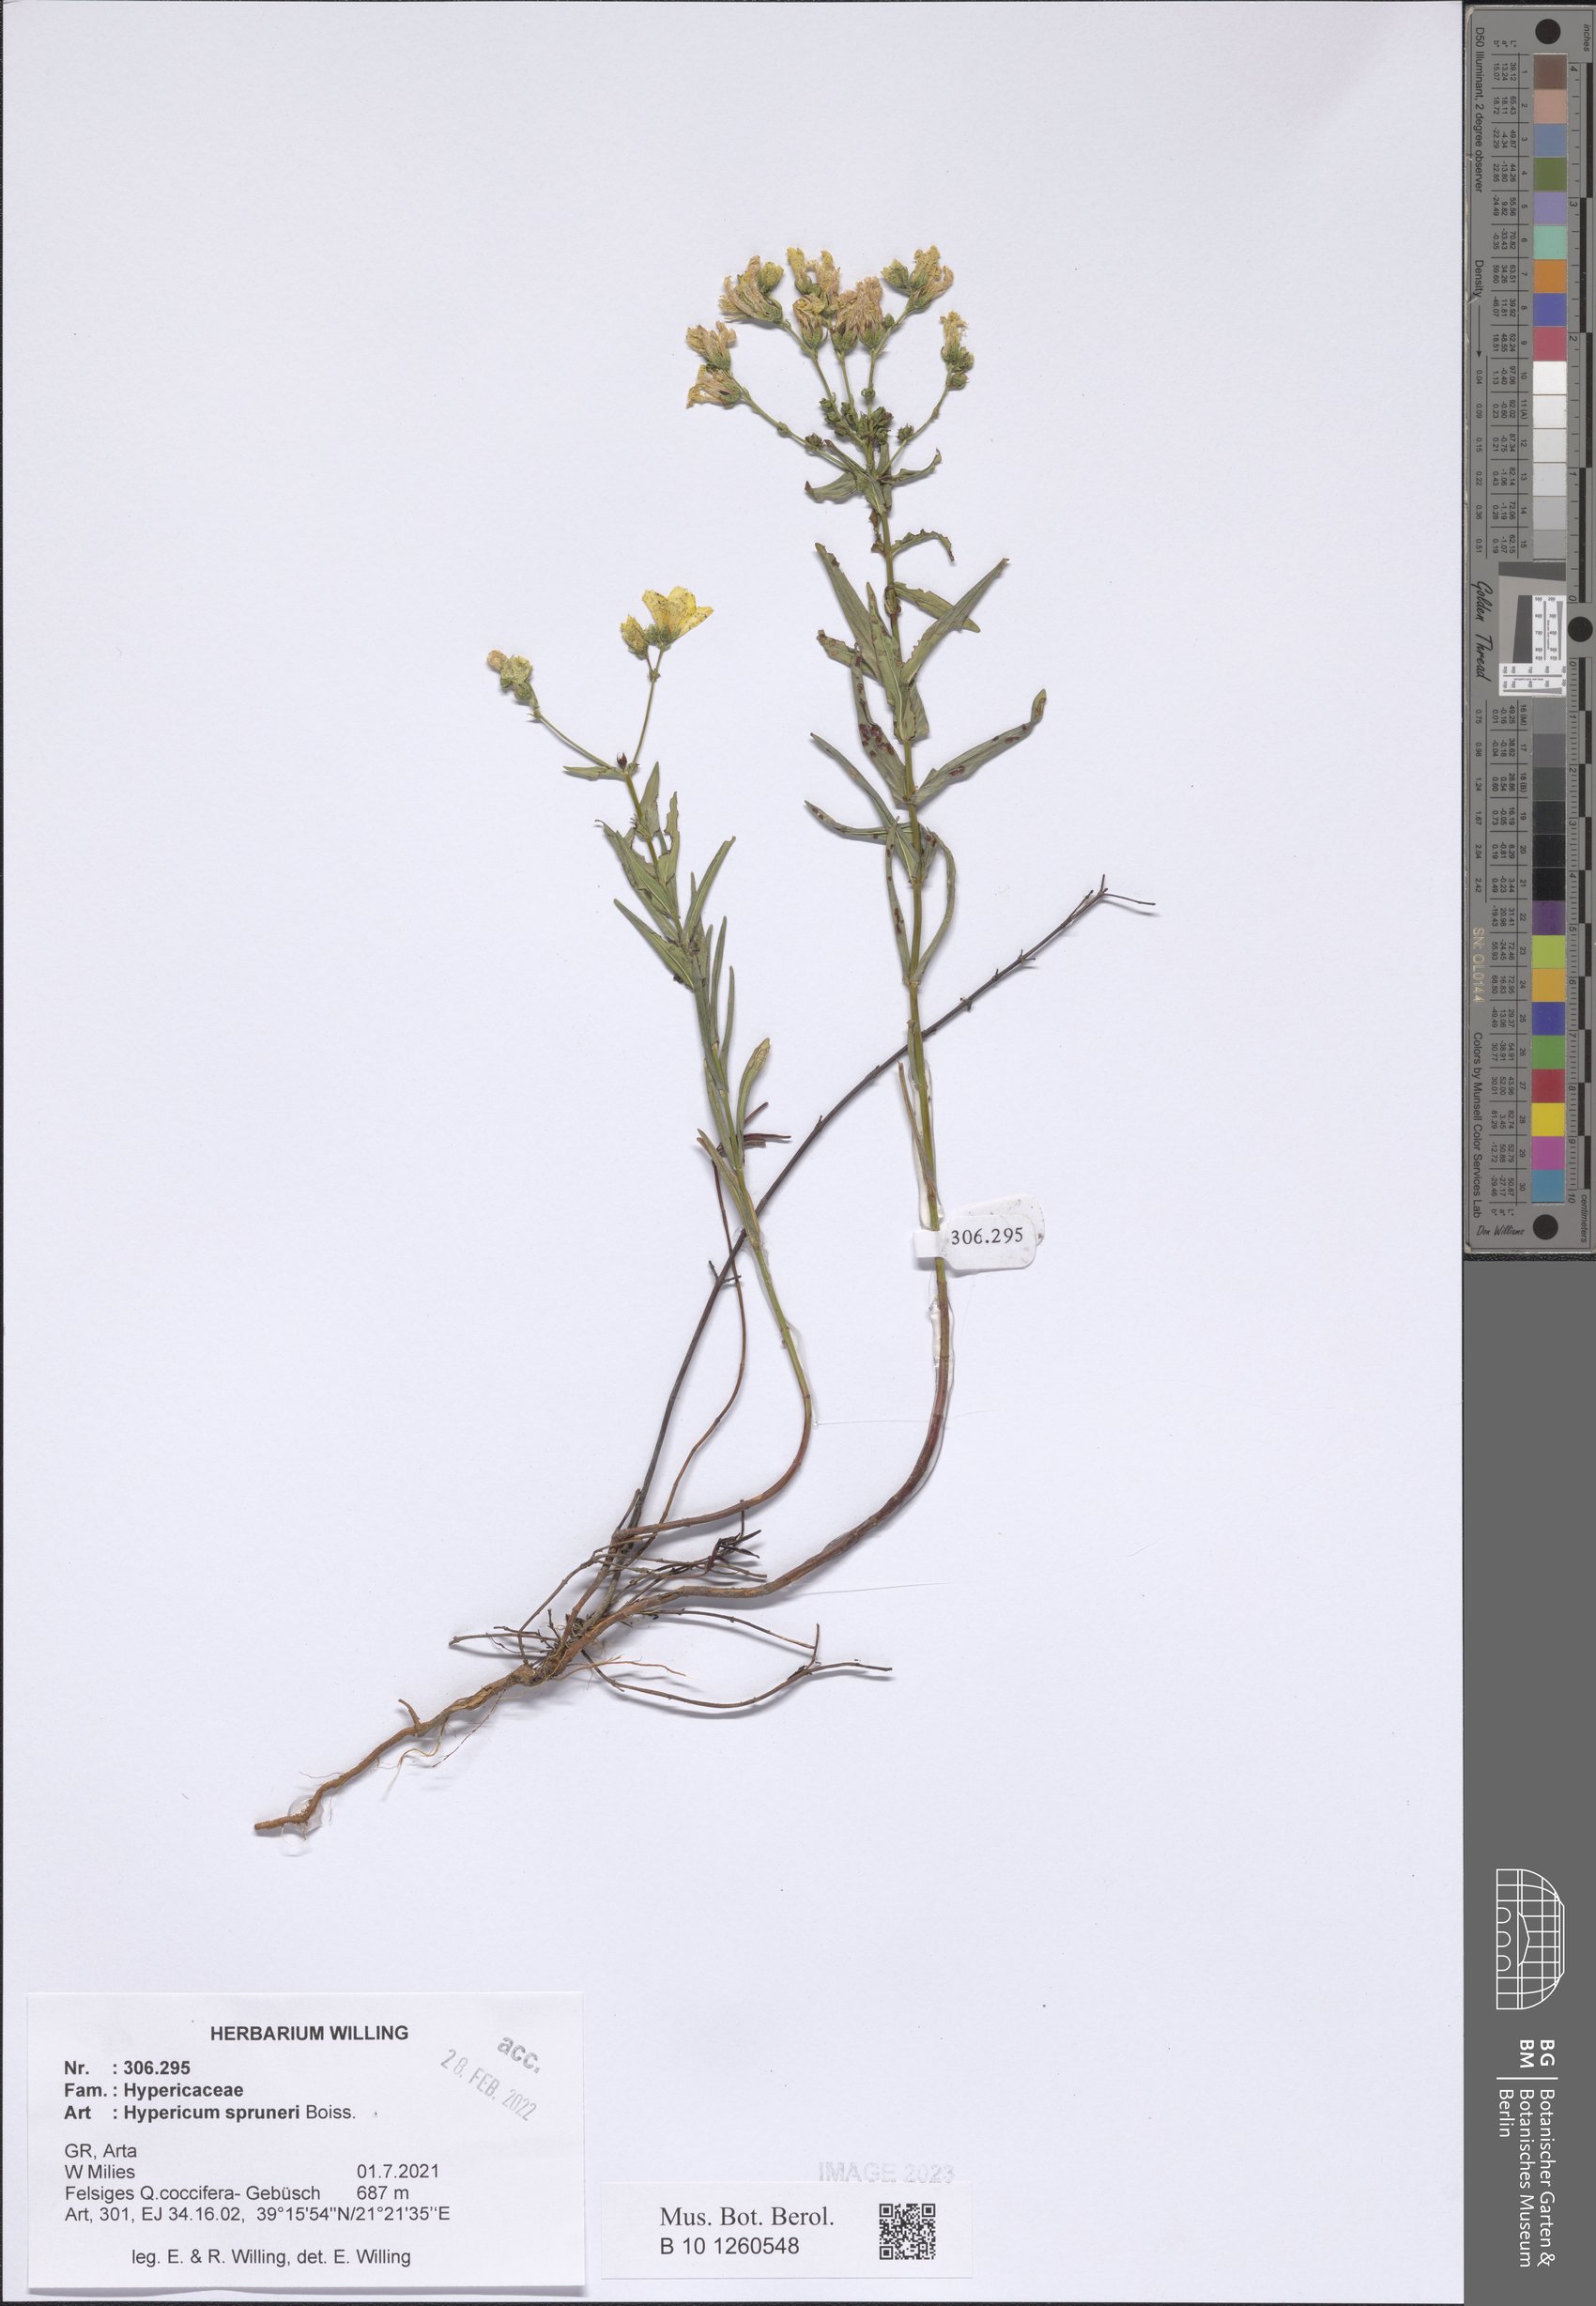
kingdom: Plantae
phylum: Tracheophyta
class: Magnoliopsida
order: Malpighiales
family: Hypericaceae
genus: Hypericum
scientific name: Hypericum spruneri
